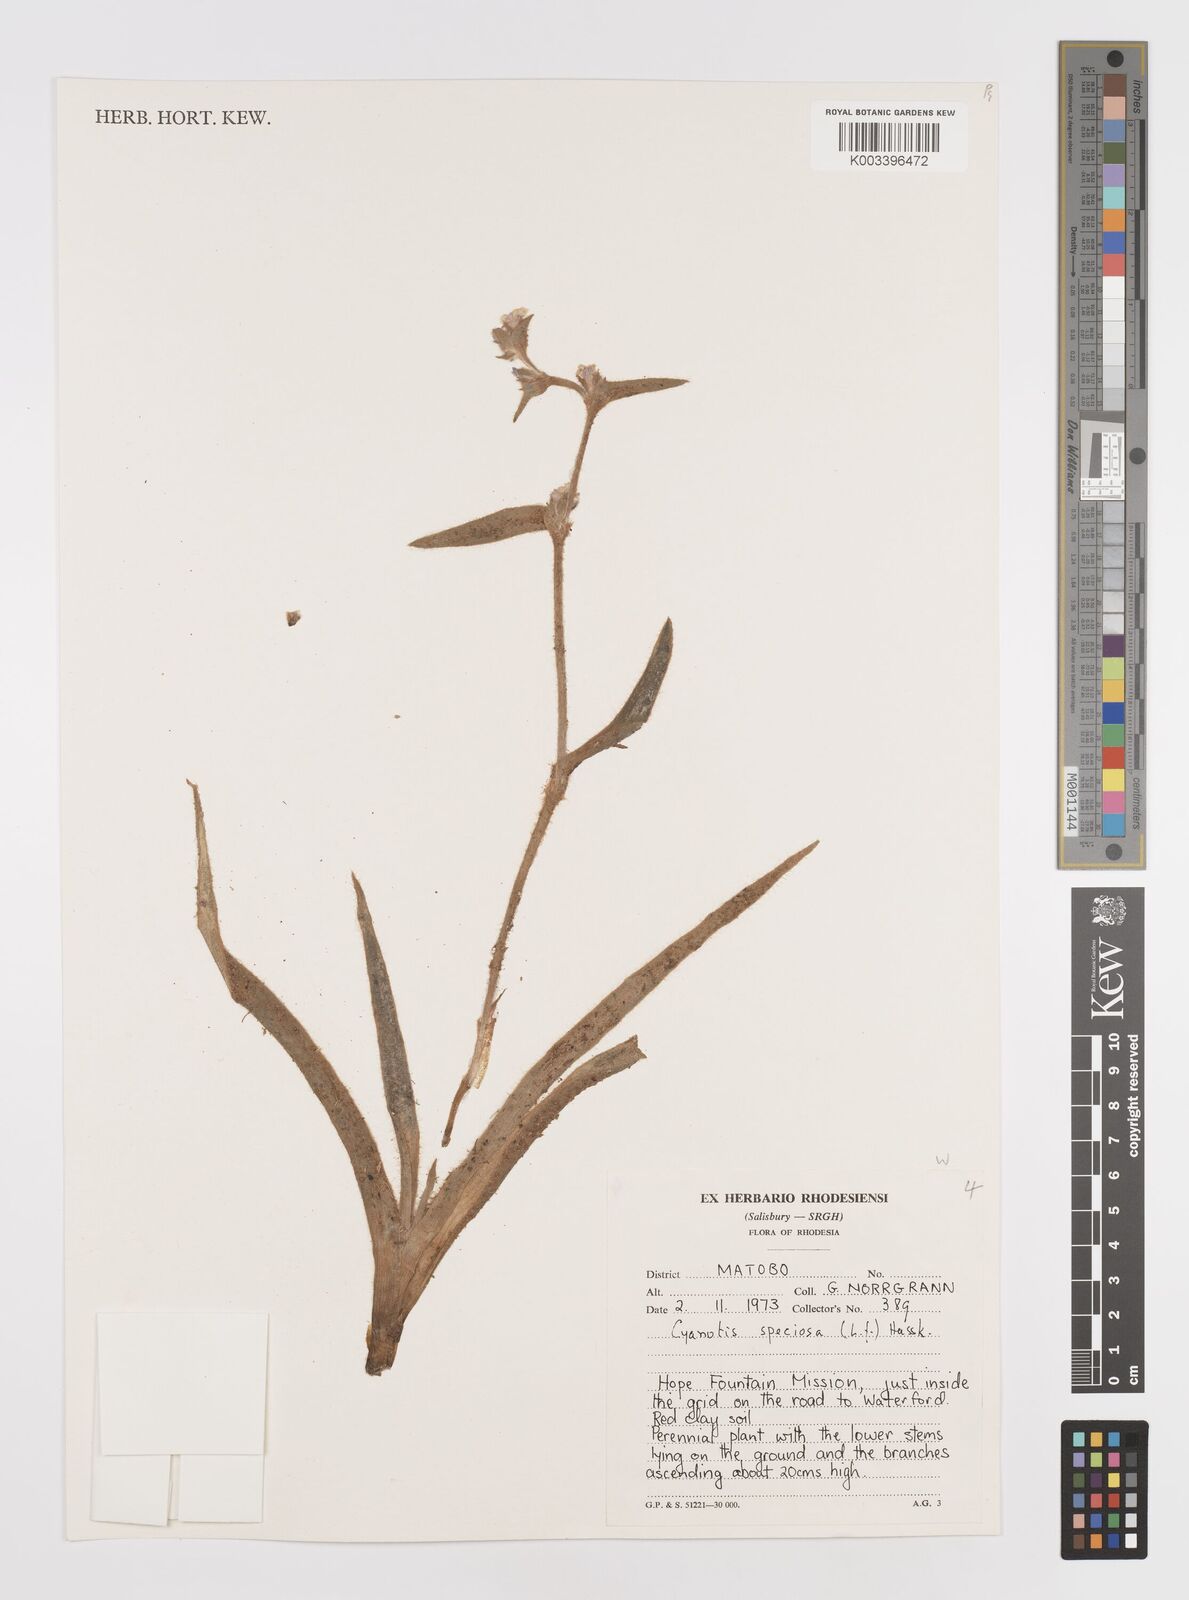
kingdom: Plantae
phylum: Tracheophyta
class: Liliopsida
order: Commelinales
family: Commelinaceae
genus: Cyanotis
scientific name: Cyanotis speciosa
